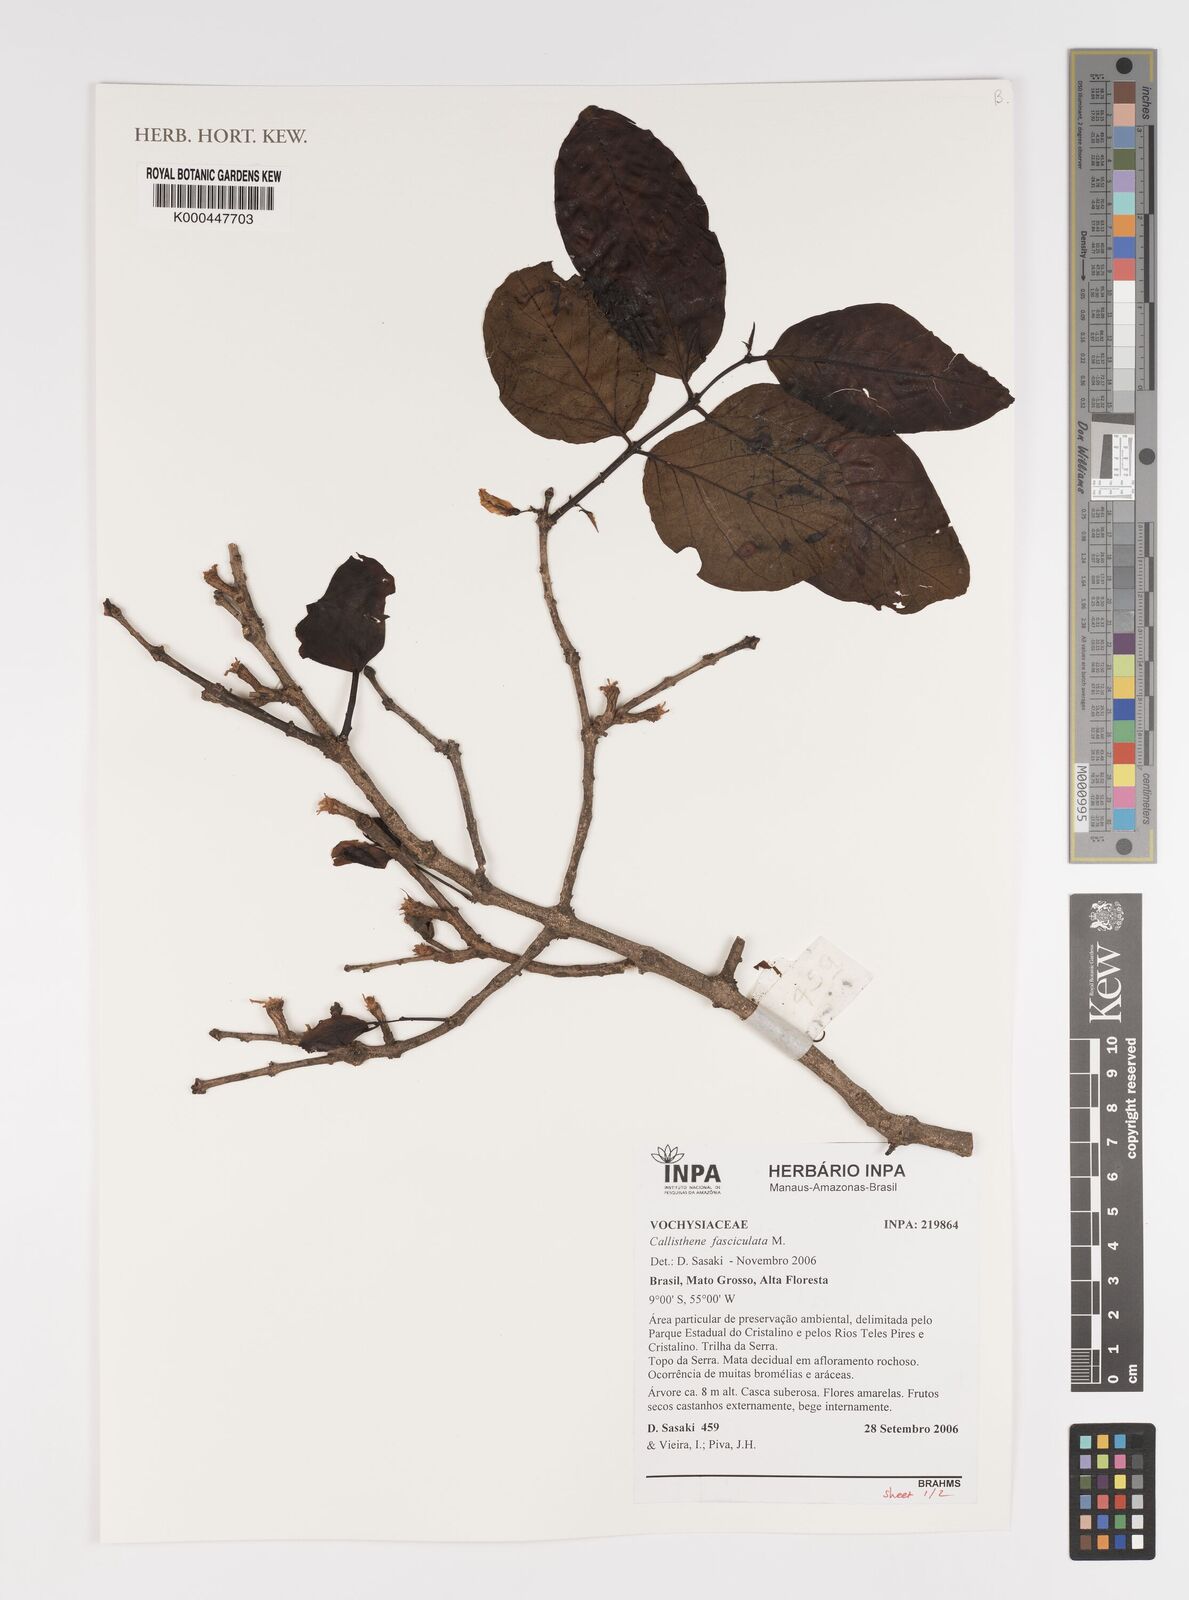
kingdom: Plantae
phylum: Tracheophyta
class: Magnoliopsida
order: Myrtales
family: Vochysiaceae
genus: Callisthene
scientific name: Callisthene fasciculata
